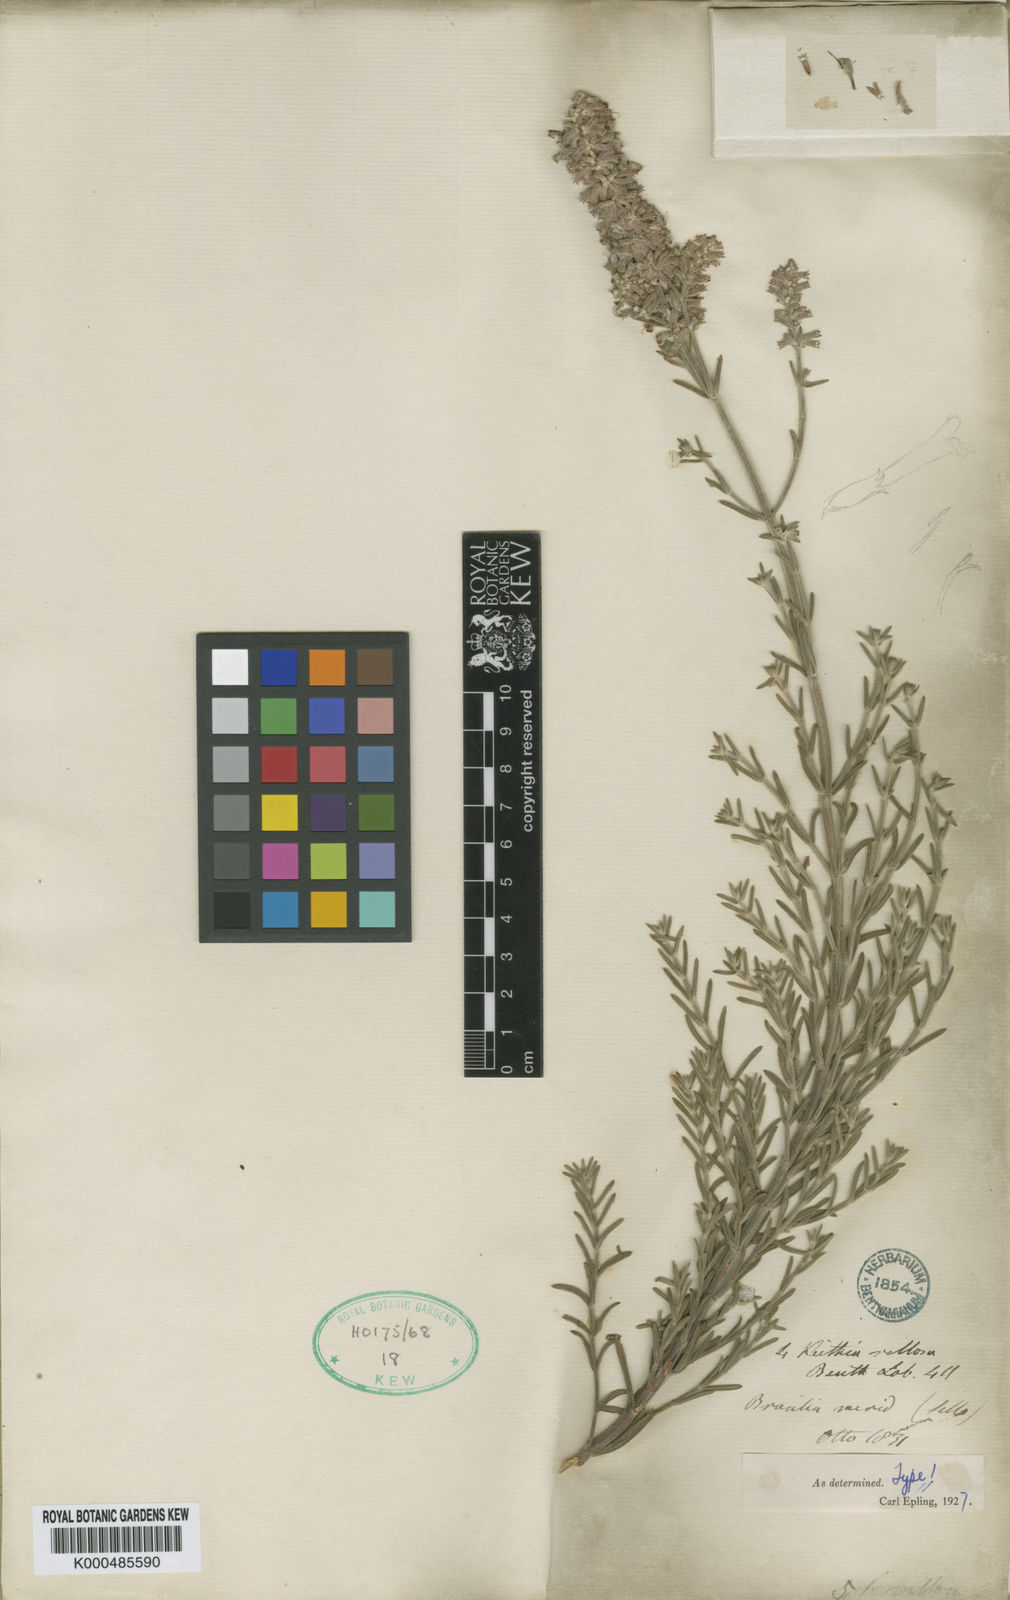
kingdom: Plantae
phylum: Tracheophyta
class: Magnoliopsida
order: Lamiales
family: Lamiaceae
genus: Rhabdocaulon
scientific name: Rhabdocaulon lavanduloides
